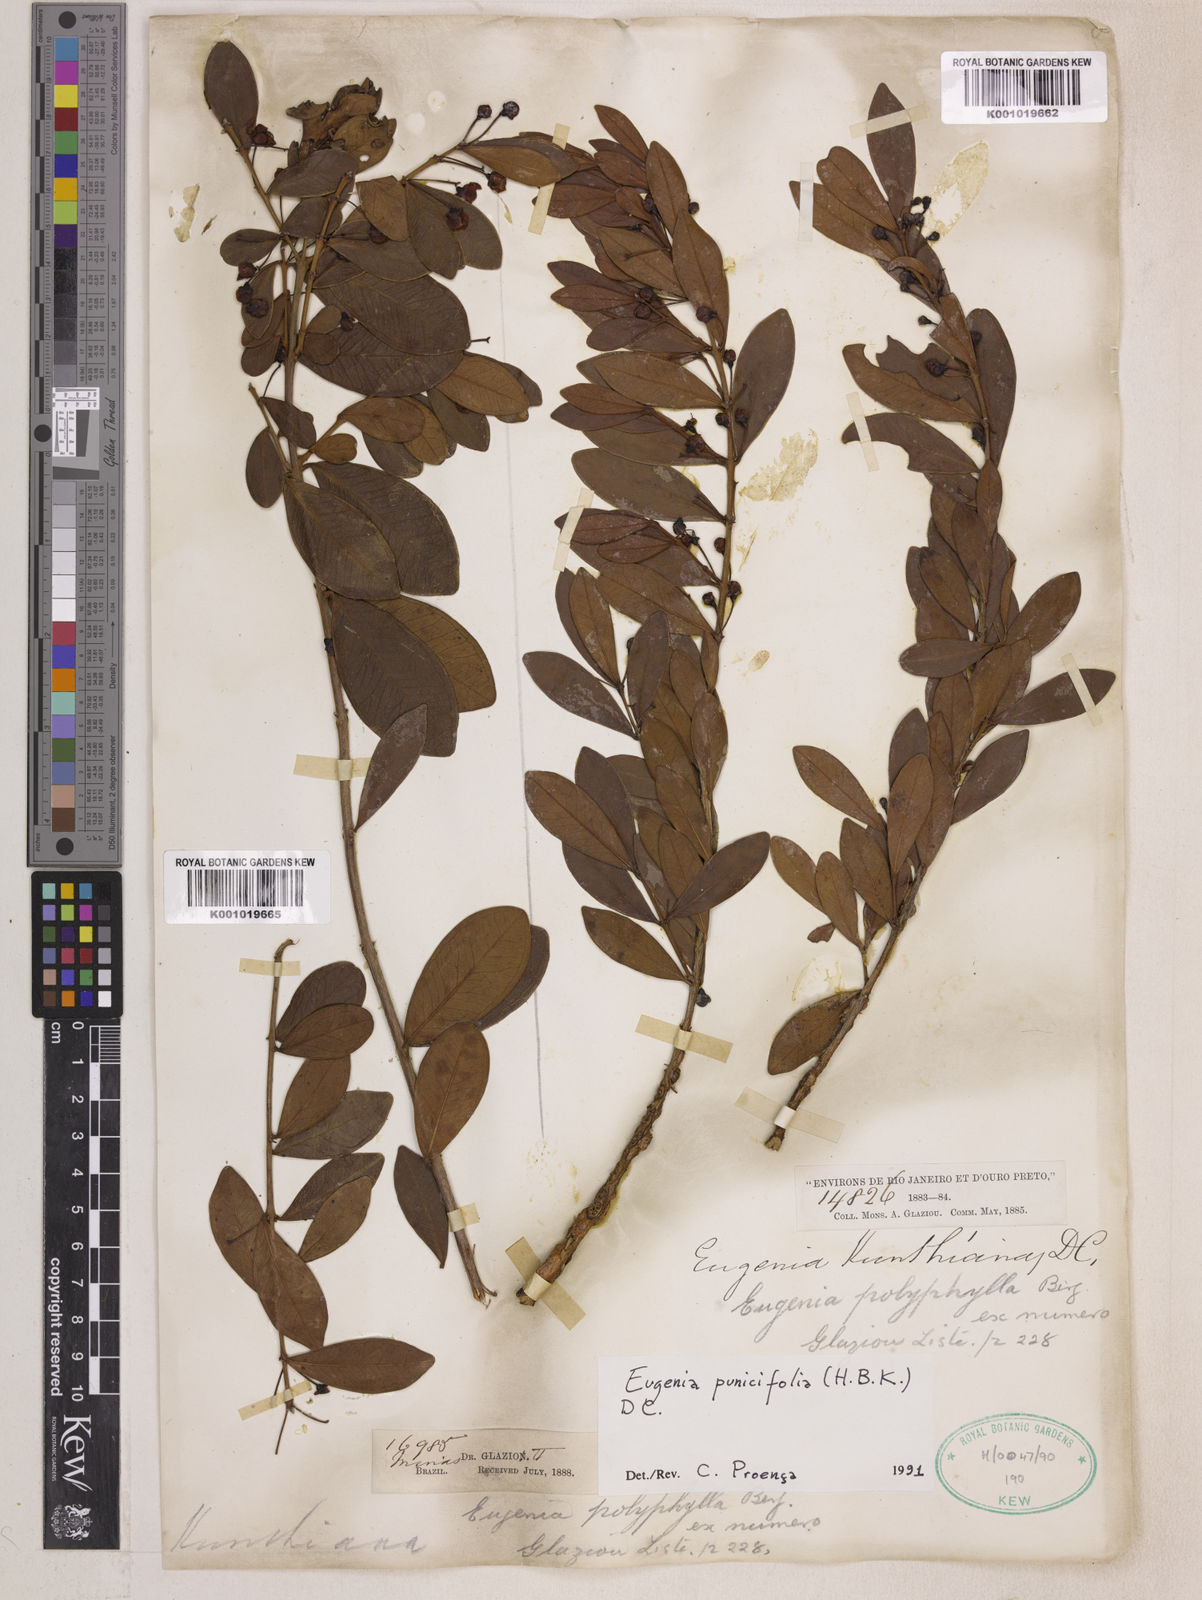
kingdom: Plantae
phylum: Tracheophyta
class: Magnoliopsida
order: Myrtales
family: Myrtaceae
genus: Eugenia
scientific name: Eugenia punicifolia
